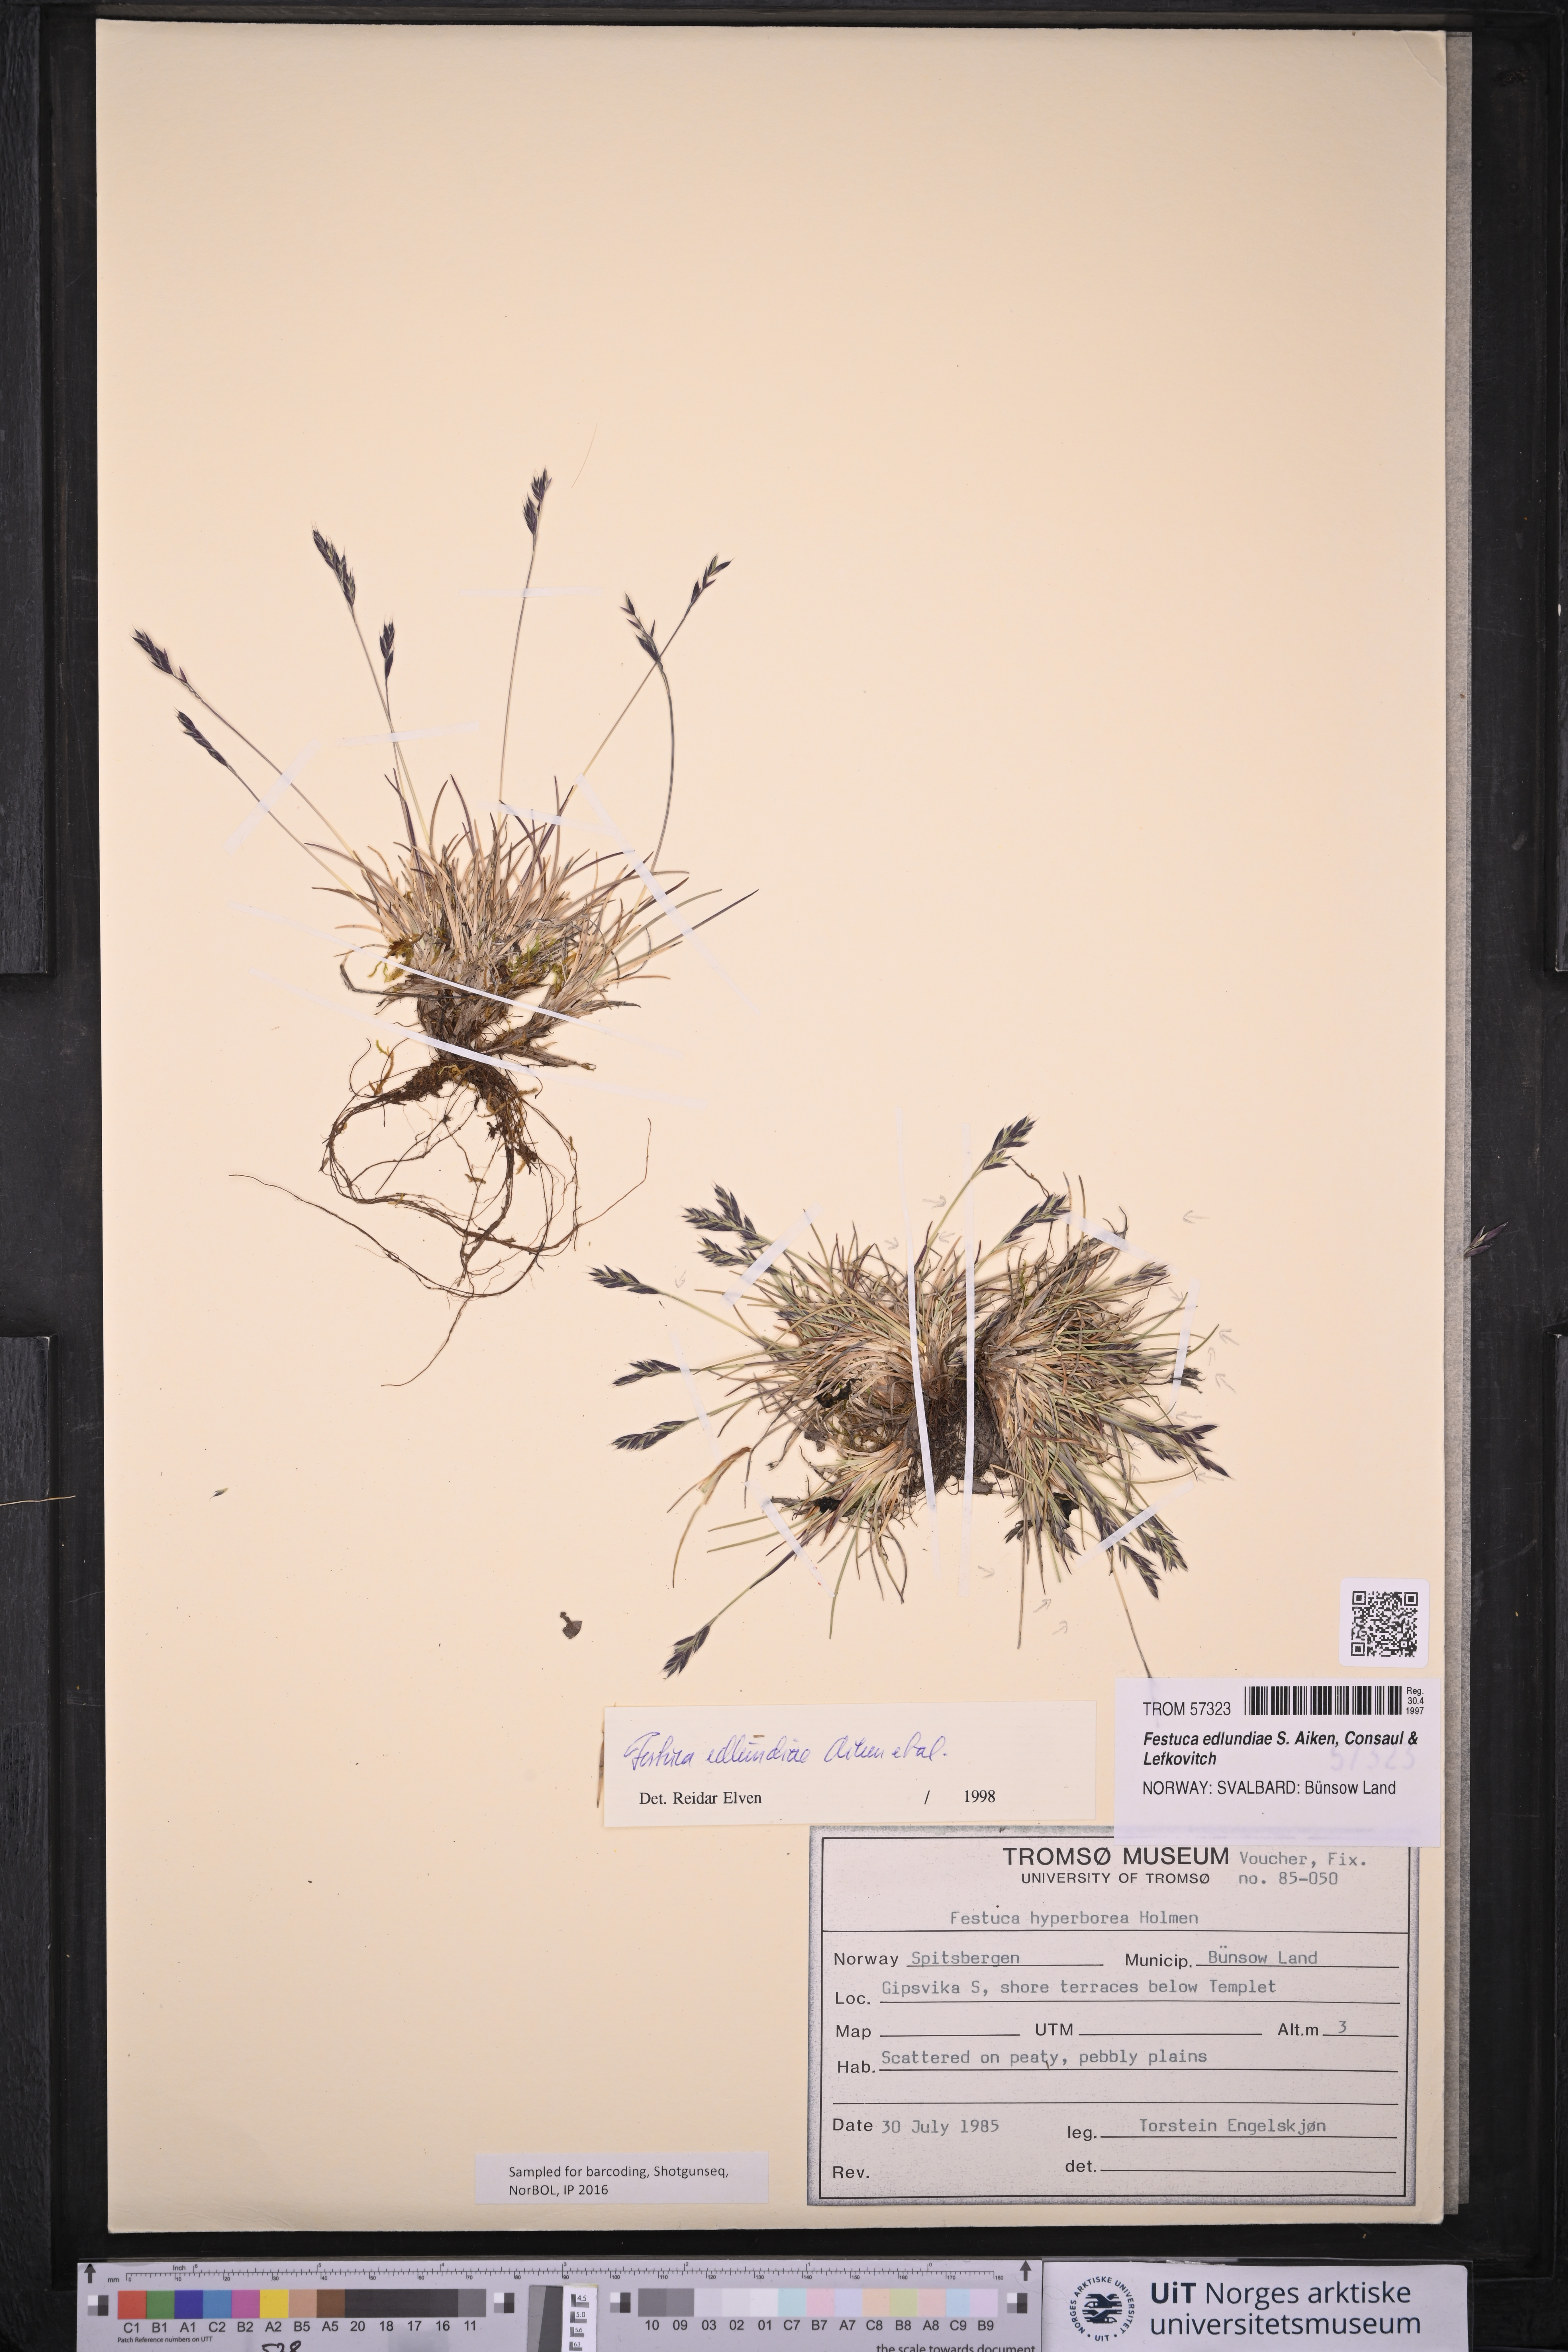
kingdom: Plantae
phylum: Tracheophyta
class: Liliopsida
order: Poales
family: Poaceae
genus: Festuca
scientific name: Festuca edlundiae
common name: Edlund's fescue
